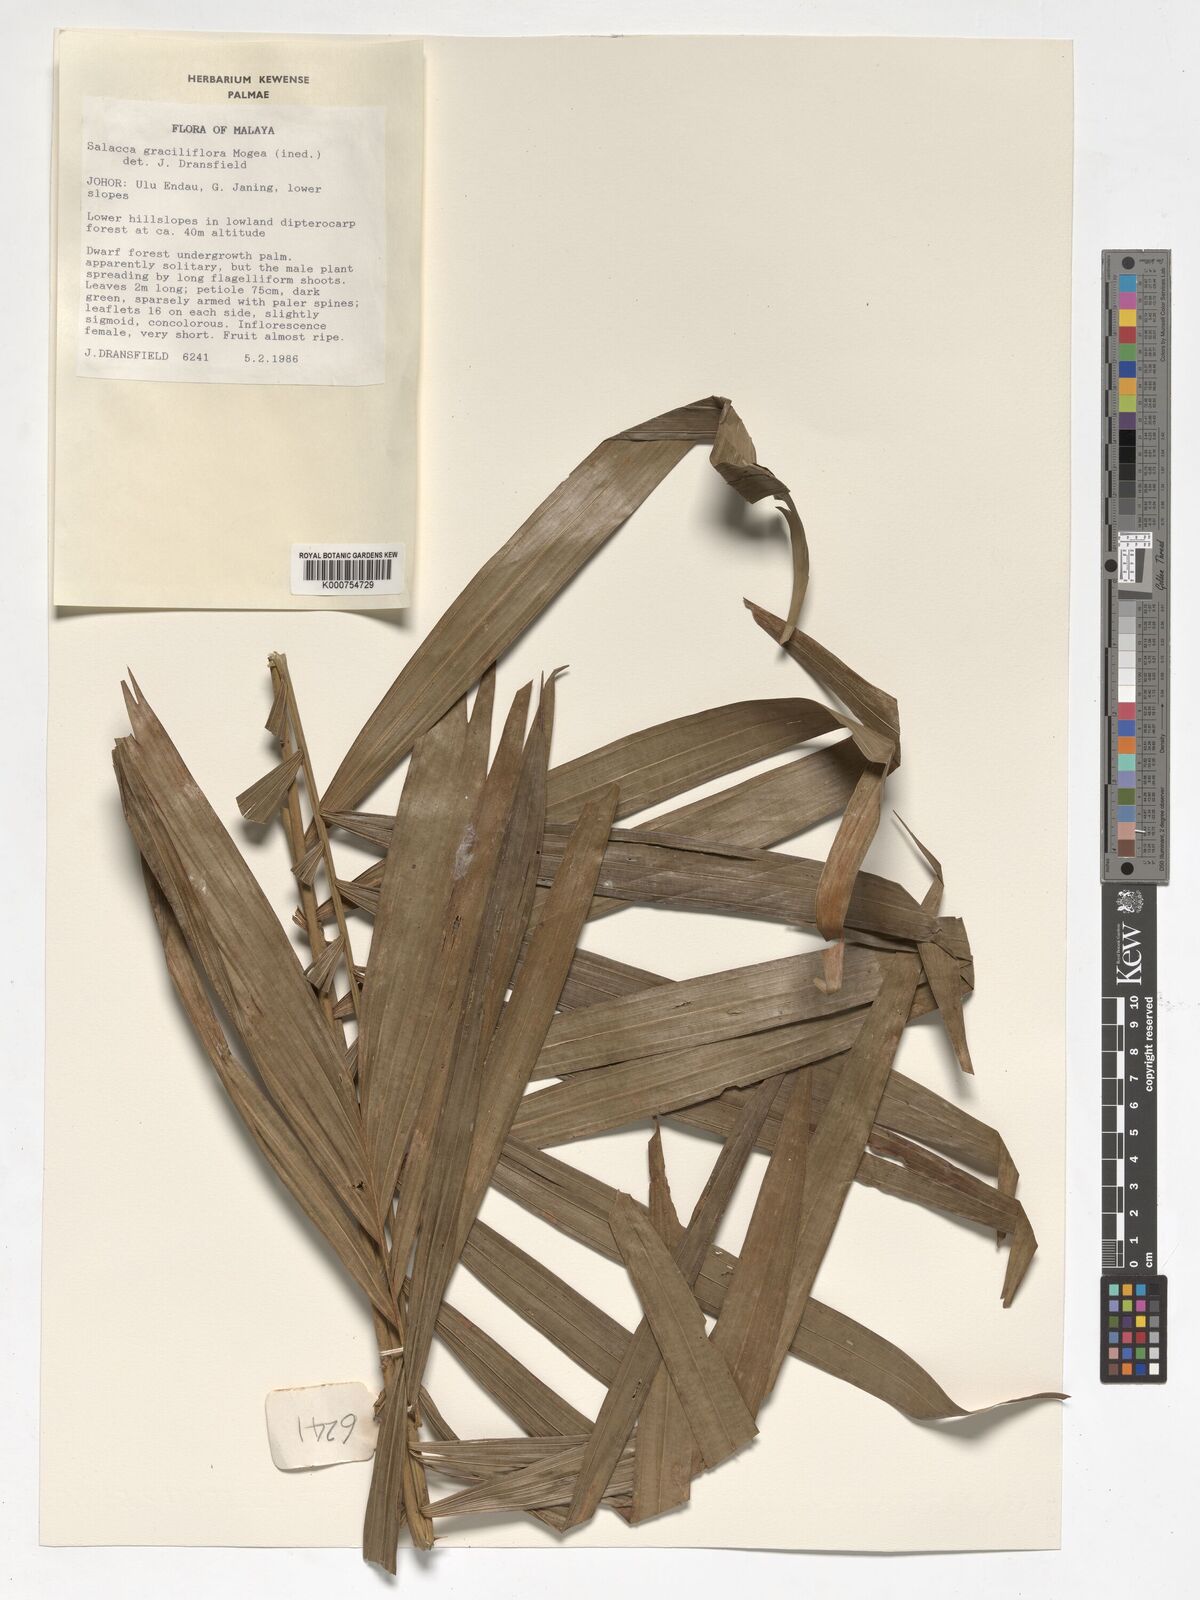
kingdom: Plantae
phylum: Tracheophyta
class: Liliopsida
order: Arecales
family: Arecaceae
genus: Salacca
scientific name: Salacca graciliflora
